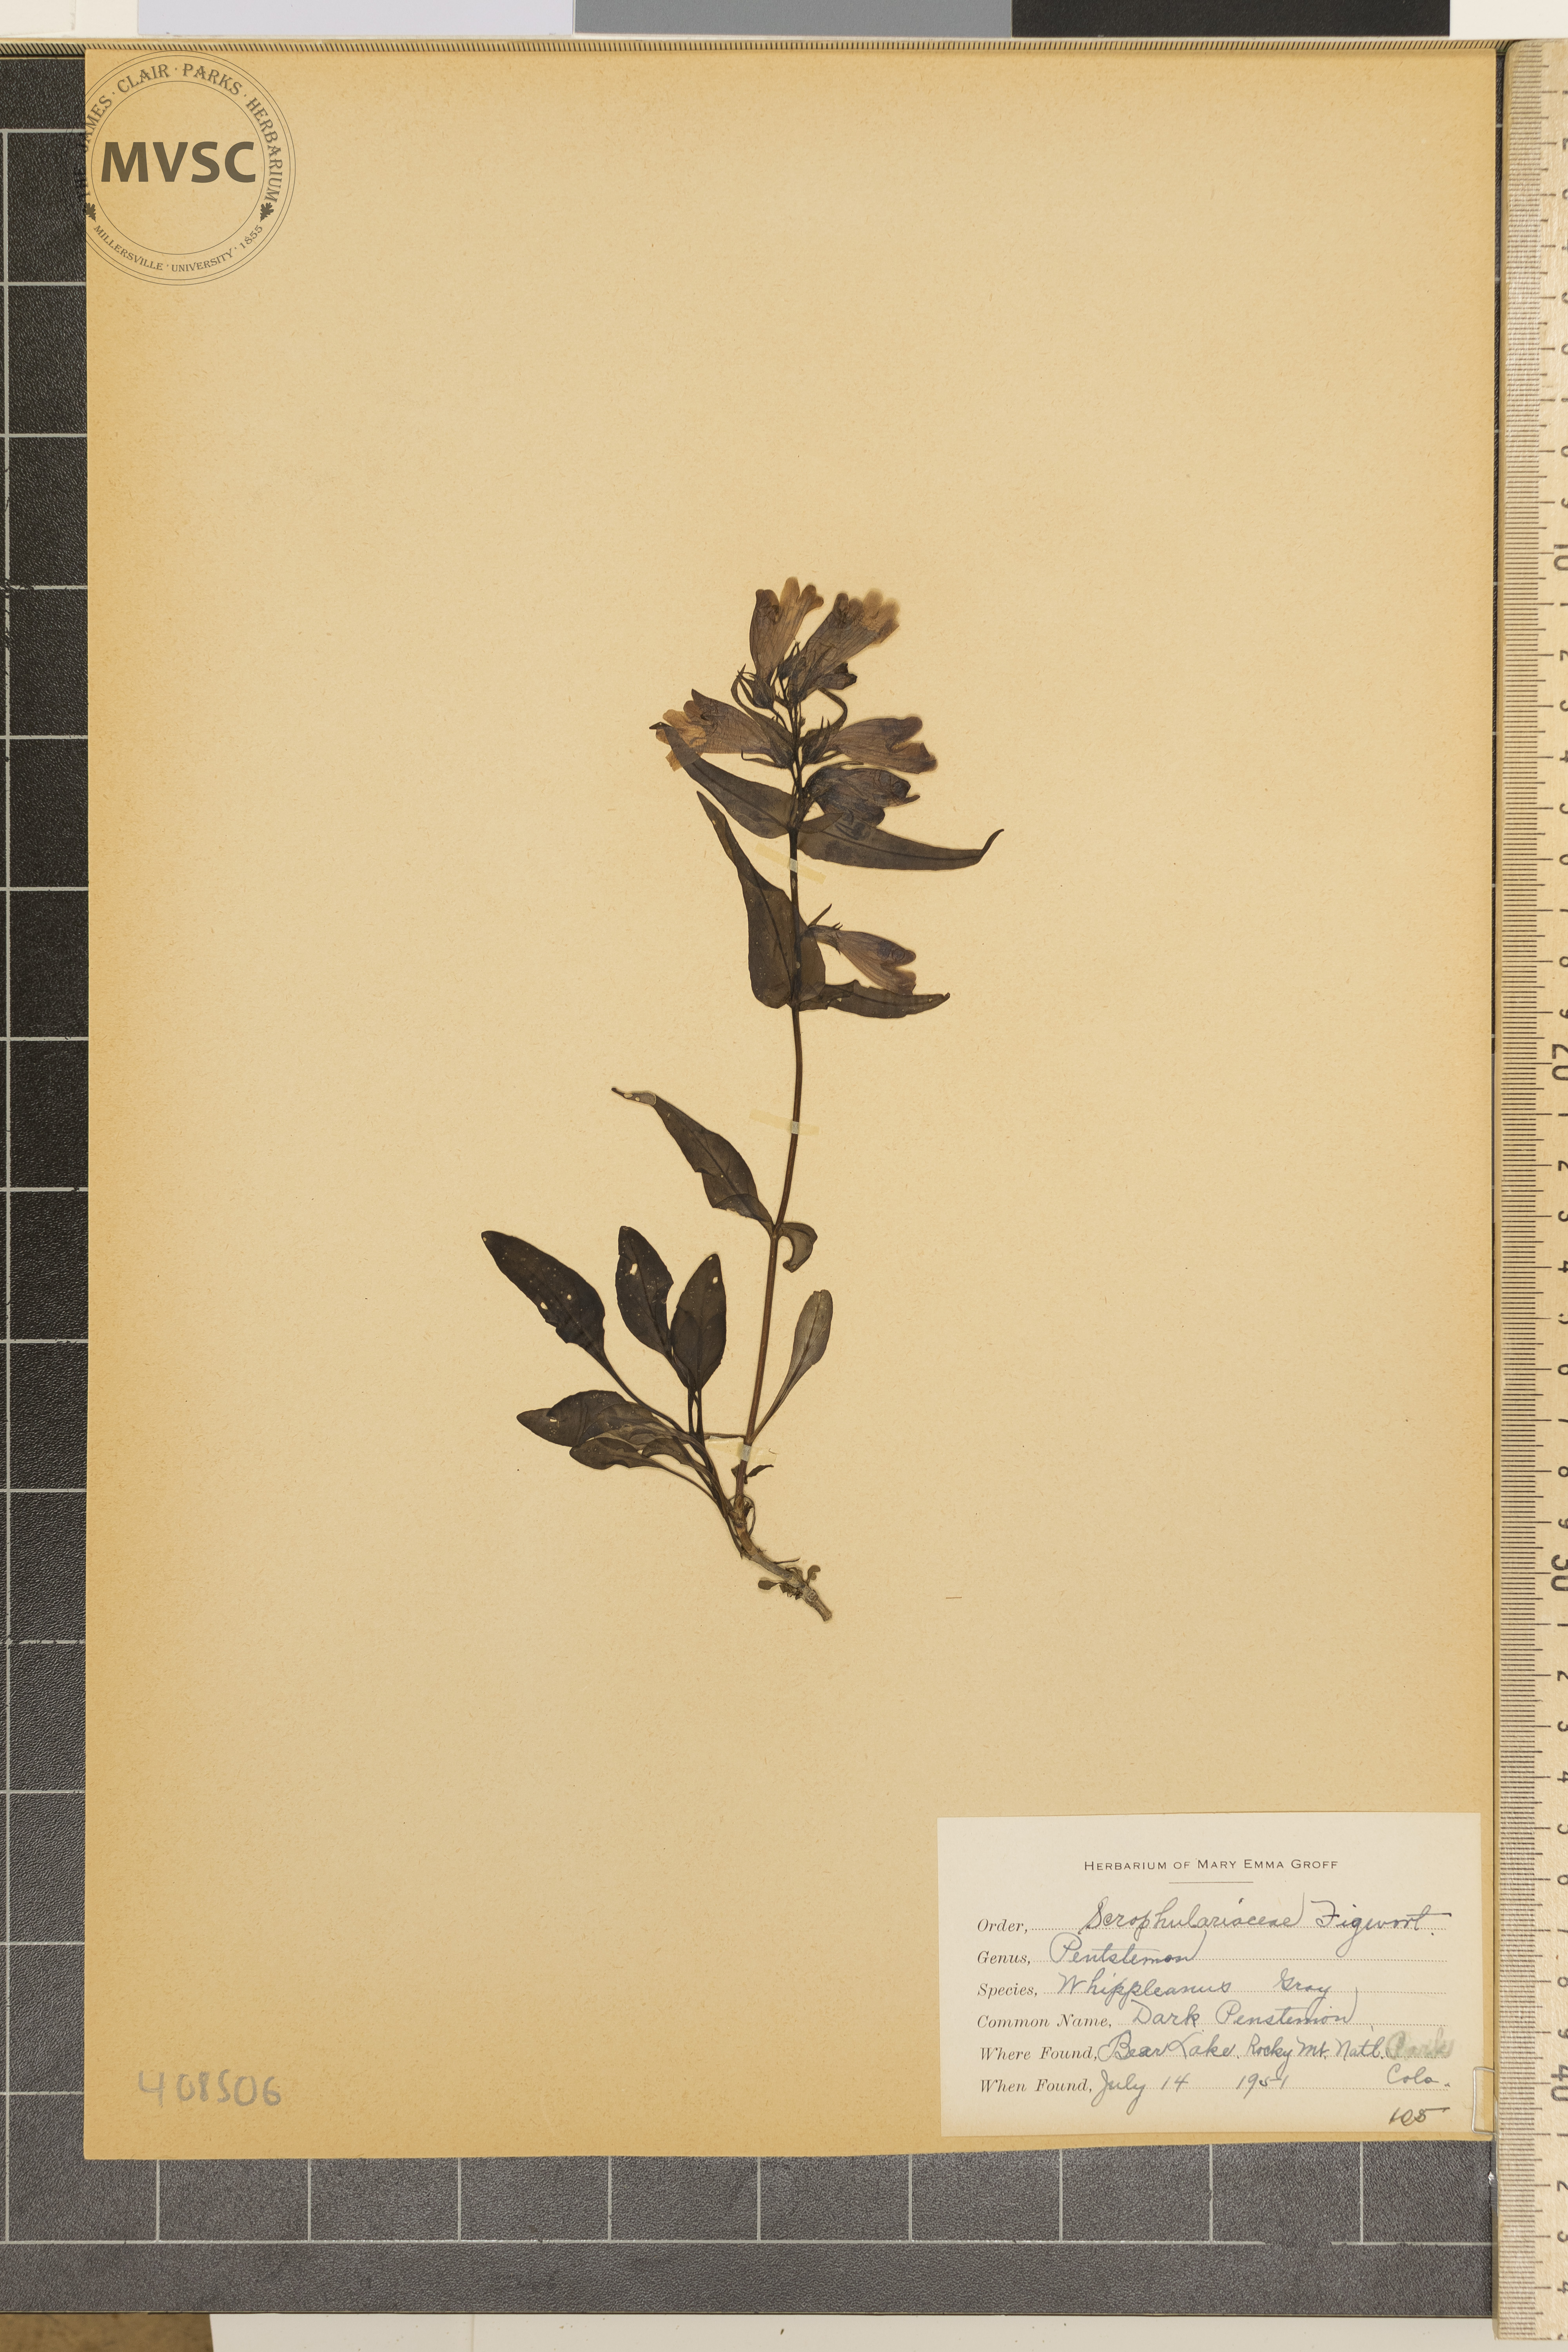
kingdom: Plantae
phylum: Tracheophyta
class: Magnoliopsida
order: Lamiales
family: Plantaginaceae
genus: Penstemon
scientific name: Penstemon whippleanus
